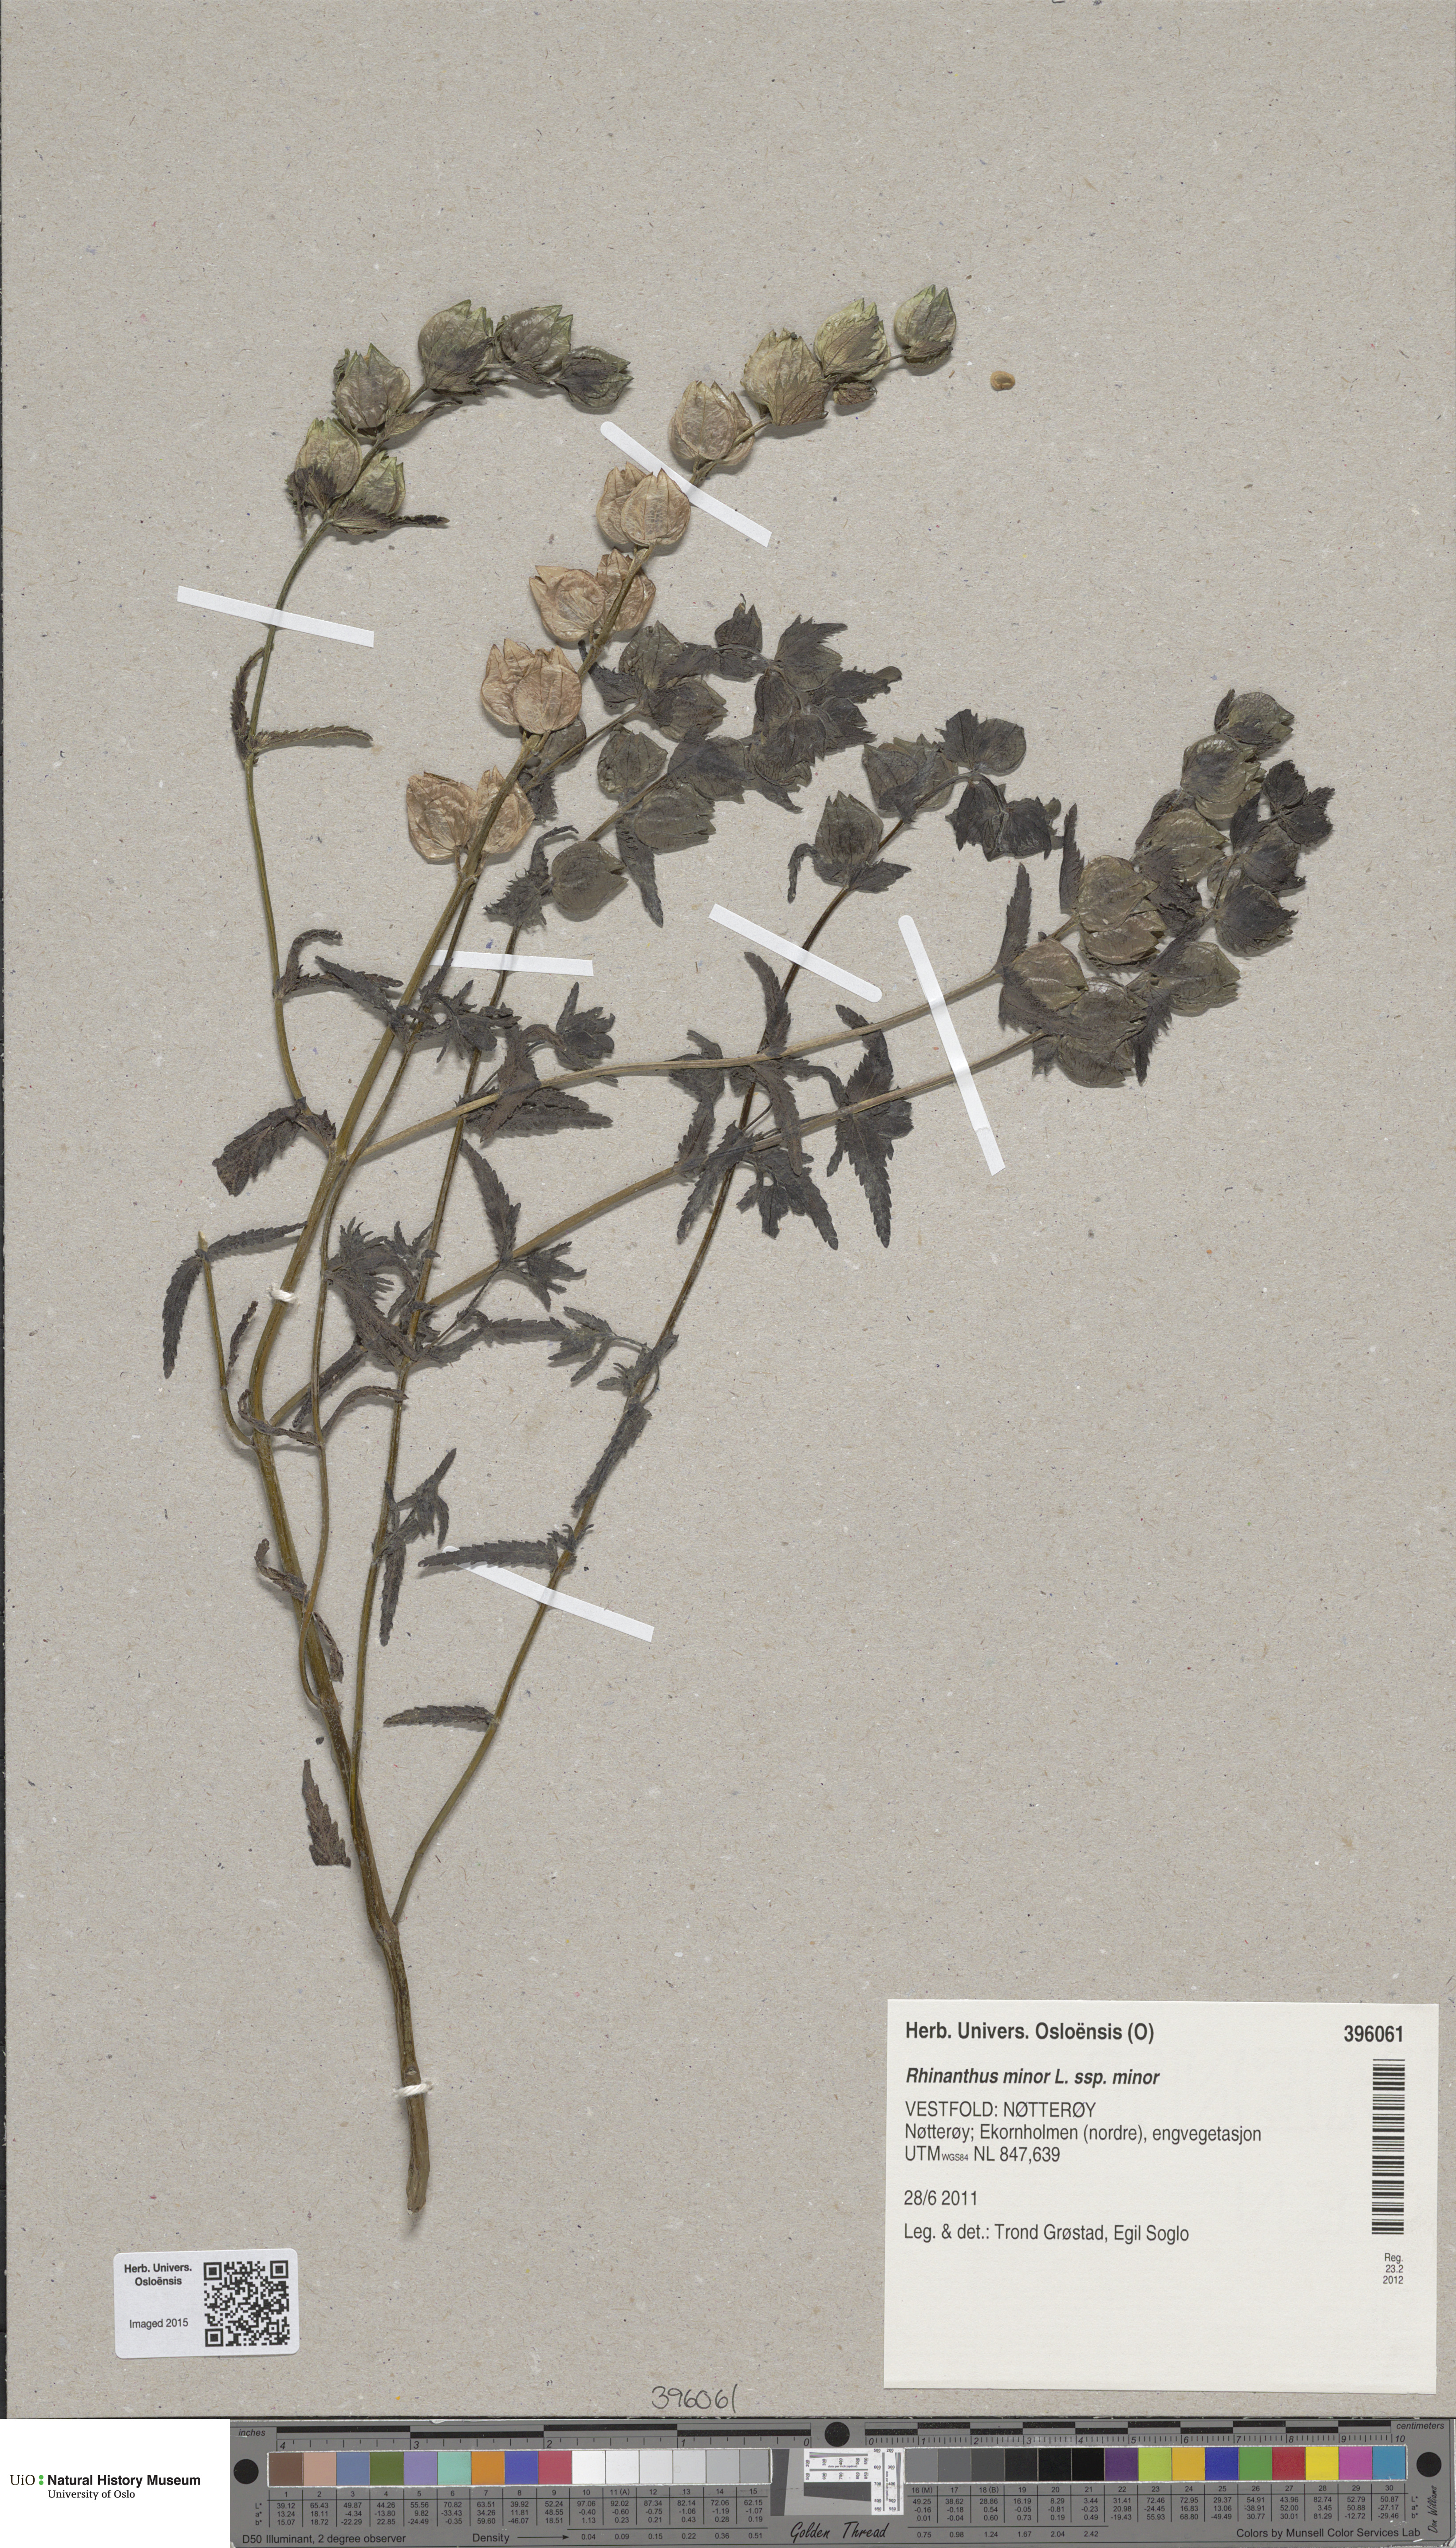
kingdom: Plantae
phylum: Tracheophyta
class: Magnoliopsida
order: Lamiales
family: Orobanchaceae
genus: Rhinanthus
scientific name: Rhinanthus minor
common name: Yellow-rattle
